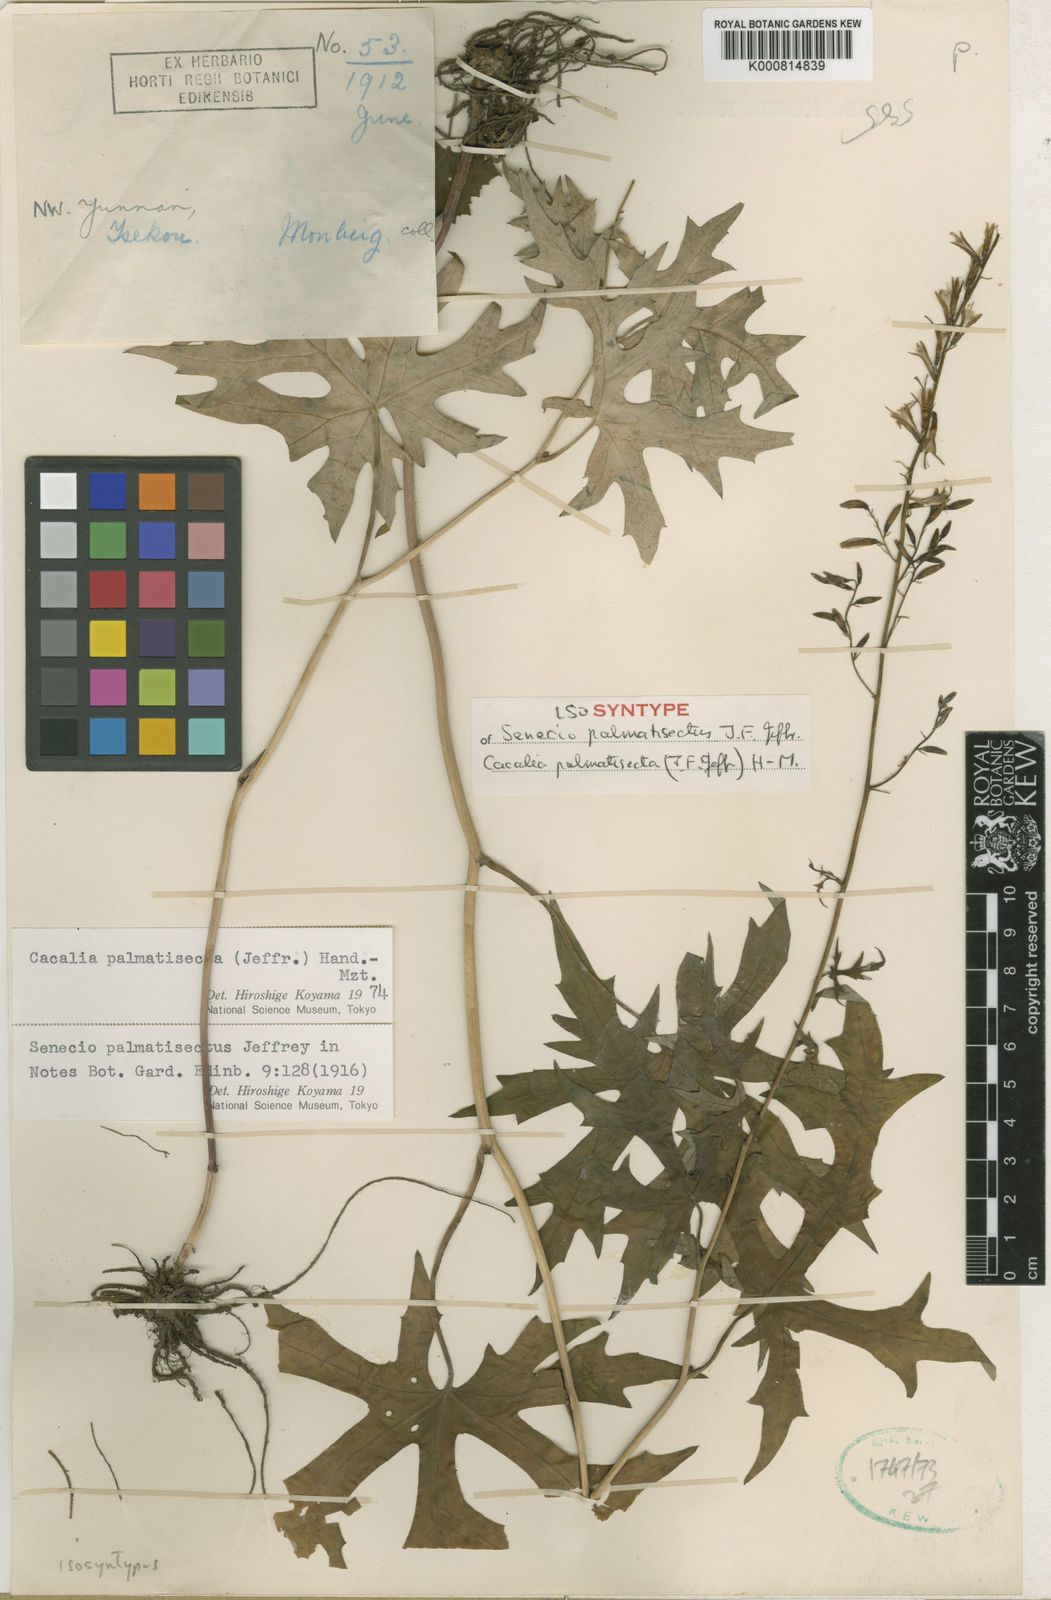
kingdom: Plantae
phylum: Tracheophyta
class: Magnoliopsida
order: Asterales
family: Asteraceae
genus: Parasenecio
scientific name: Parasenecio palmatisectus
